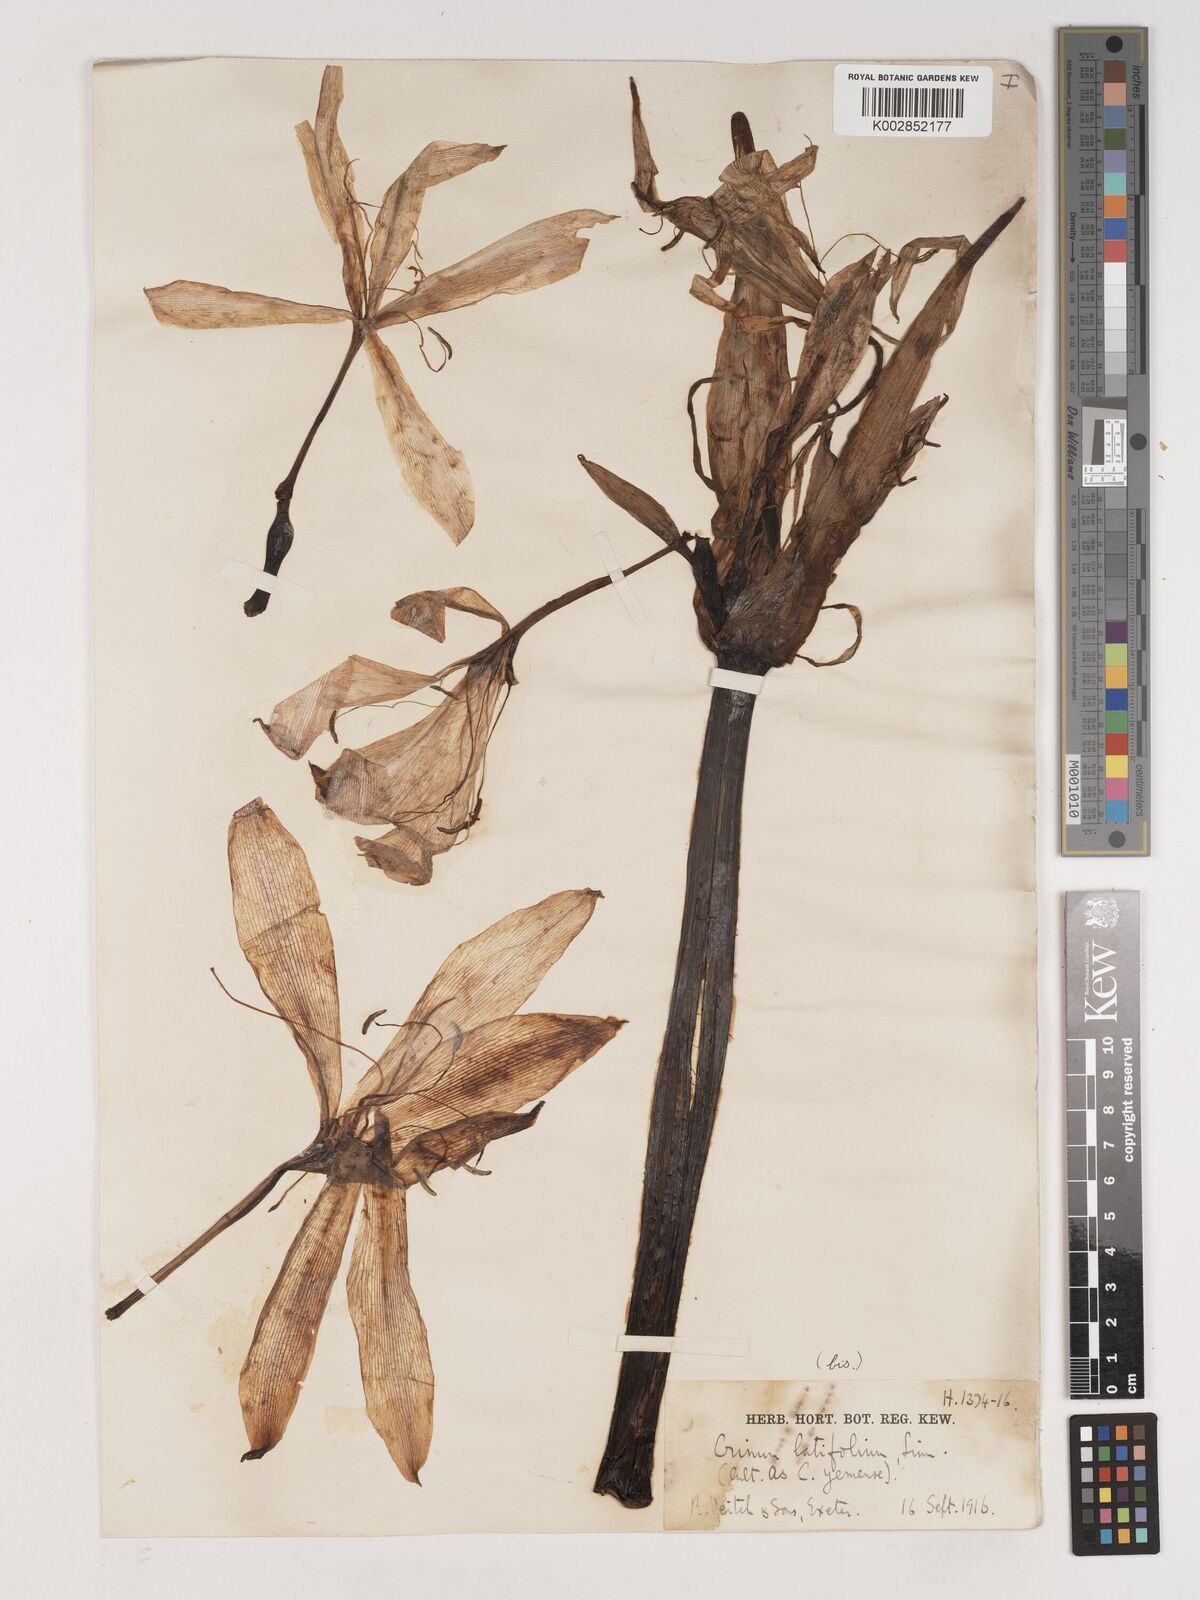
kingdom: Plantae
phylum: Tracheophyta
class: Liliopsida
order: Asparagales
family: Amaryllidaceae
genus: Crinum
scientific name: Crinum latifolium
